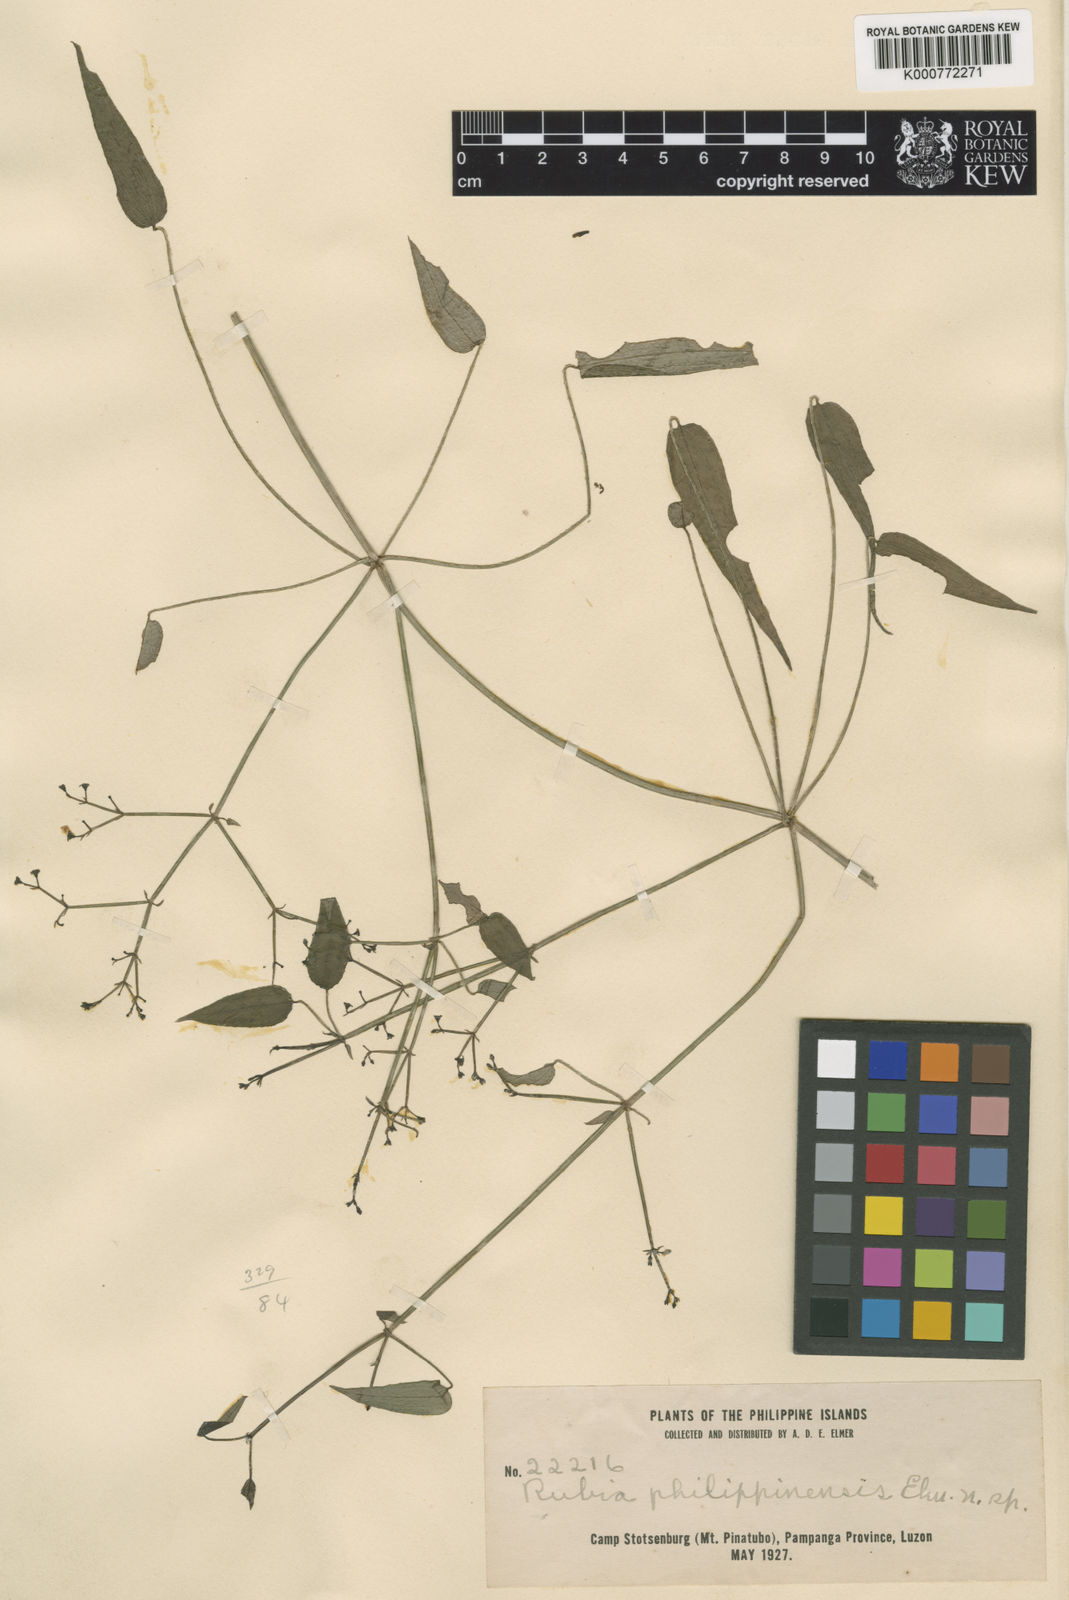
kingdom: Plantae
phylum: Tracheophyta
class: Magnoliopsida
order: Gentianales
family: Rubiaceae
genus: Rubia
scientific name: Rubia philippinensis
